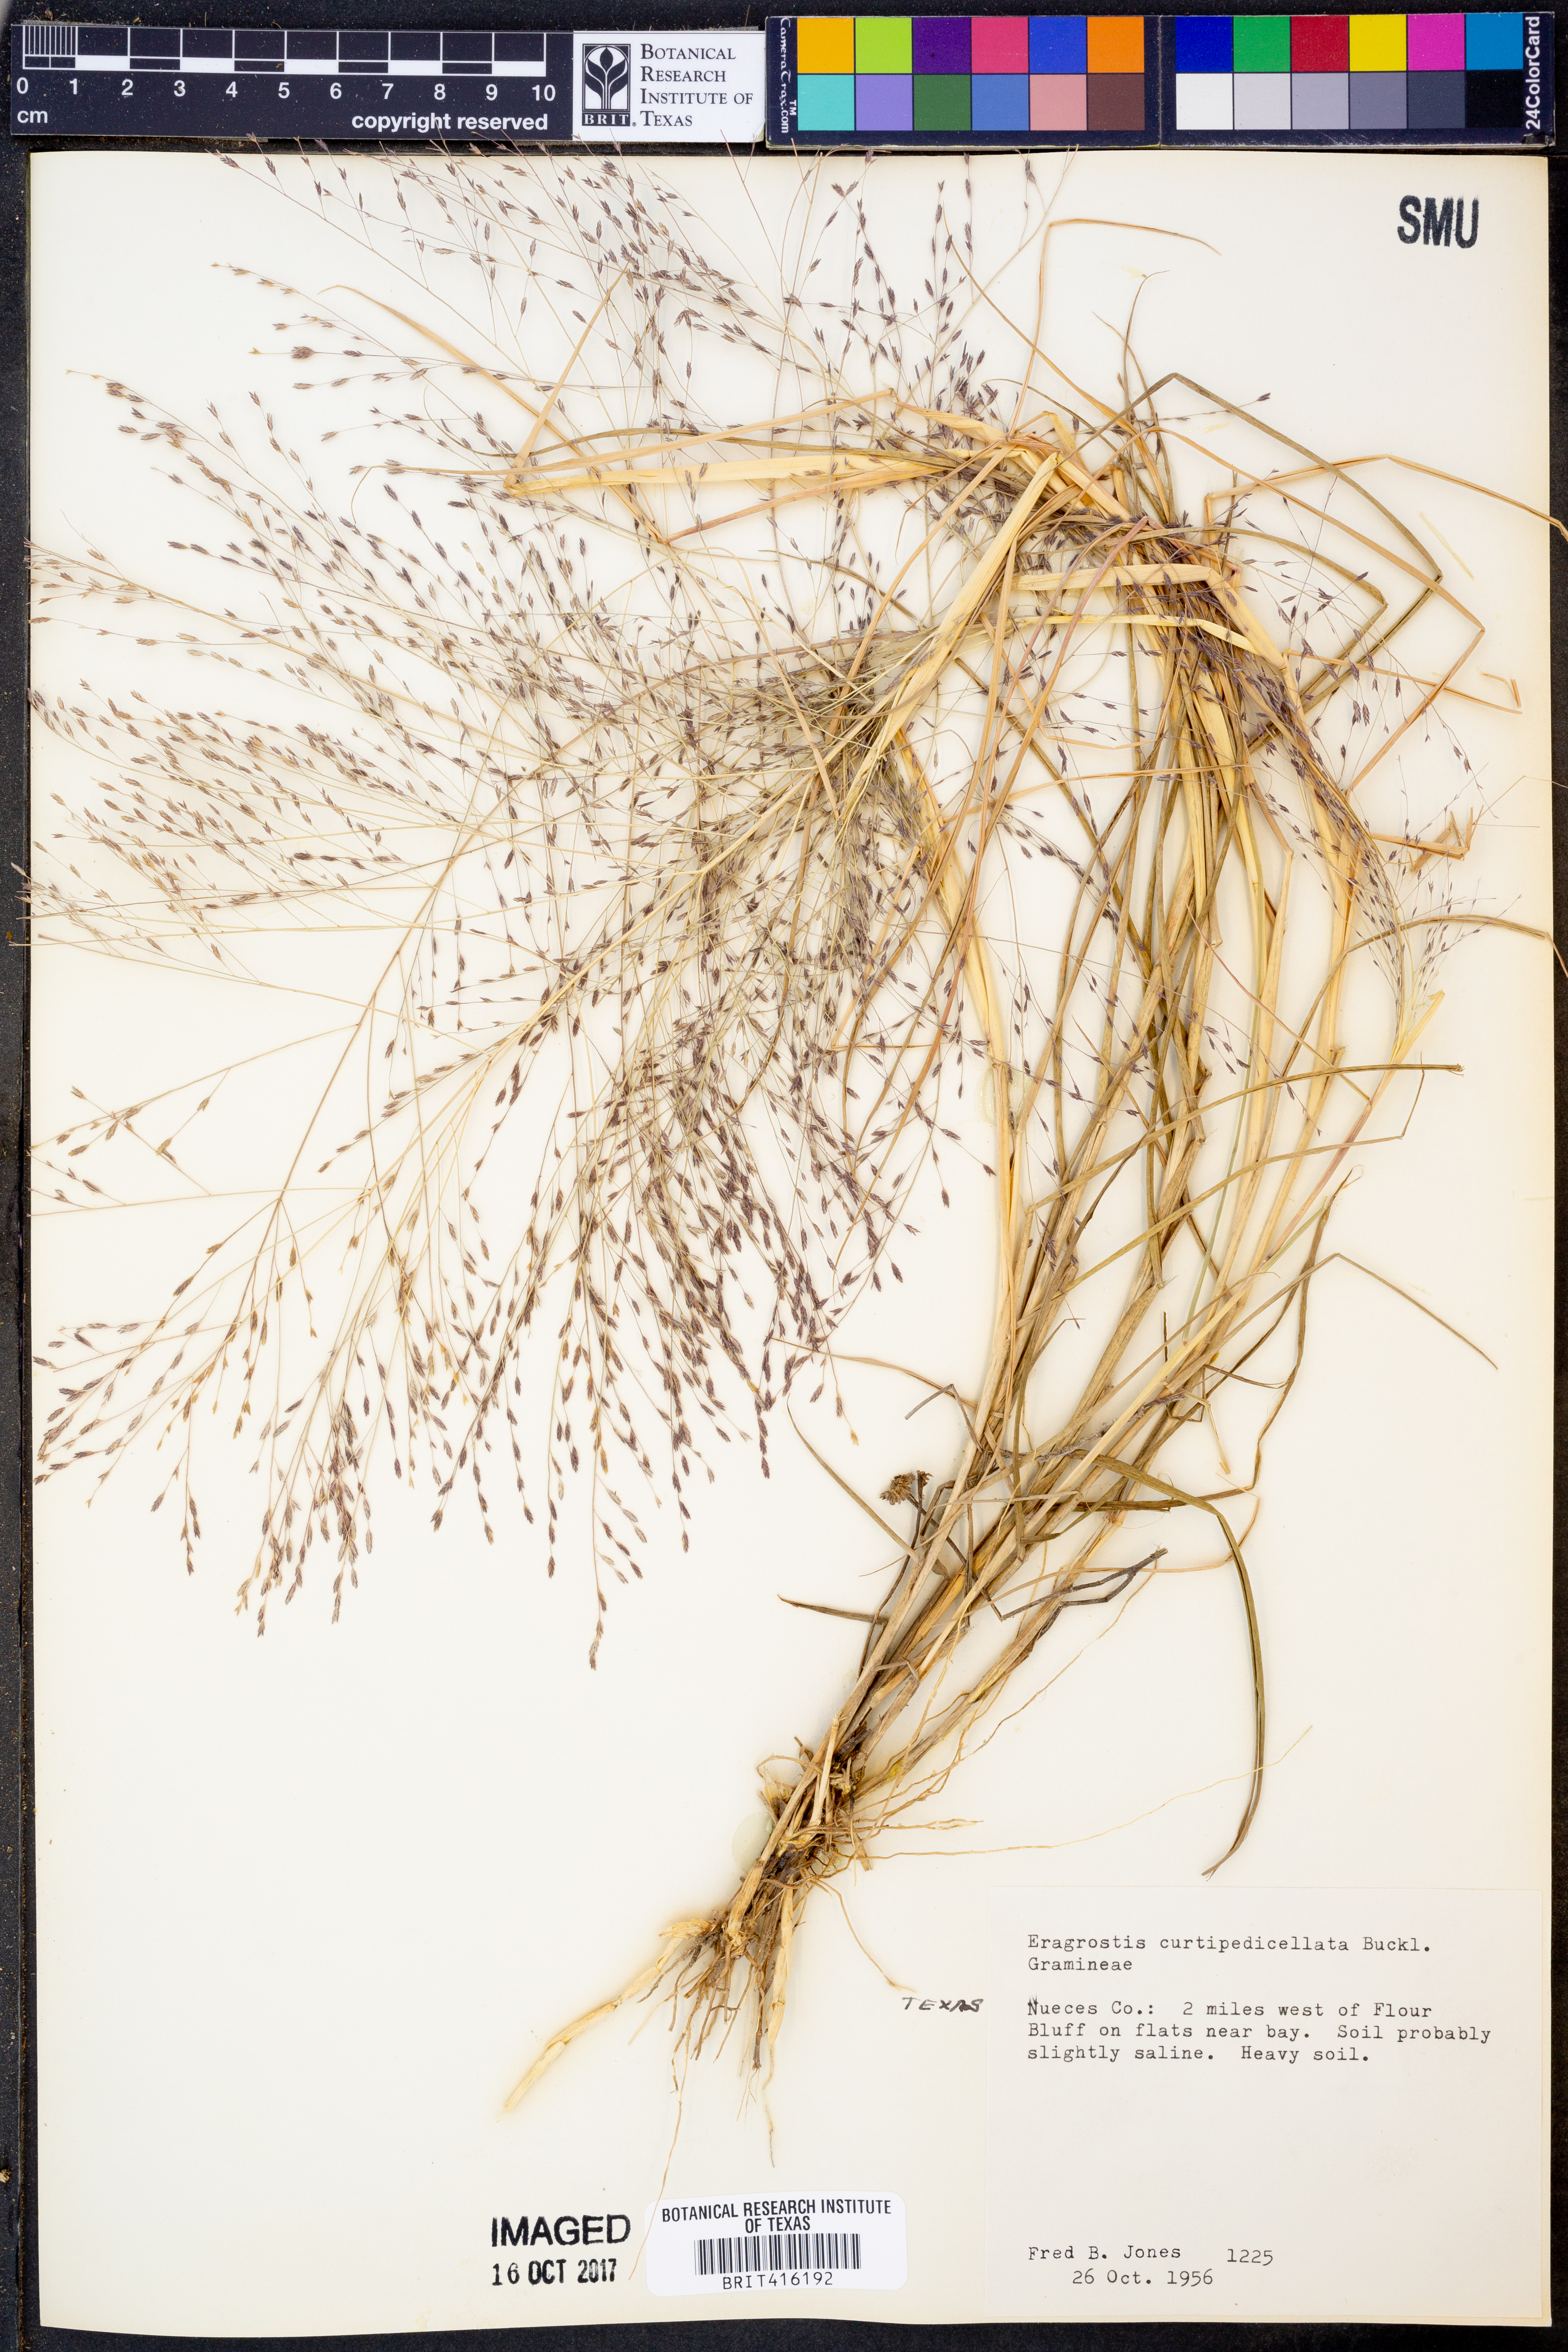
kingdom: Plantae
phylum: Tracheophyta
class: Liliopsida
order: Poales
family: Poaceae
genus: Eragrostis
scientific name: Eragrostis curtipedicellata
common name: Gummy love grass
